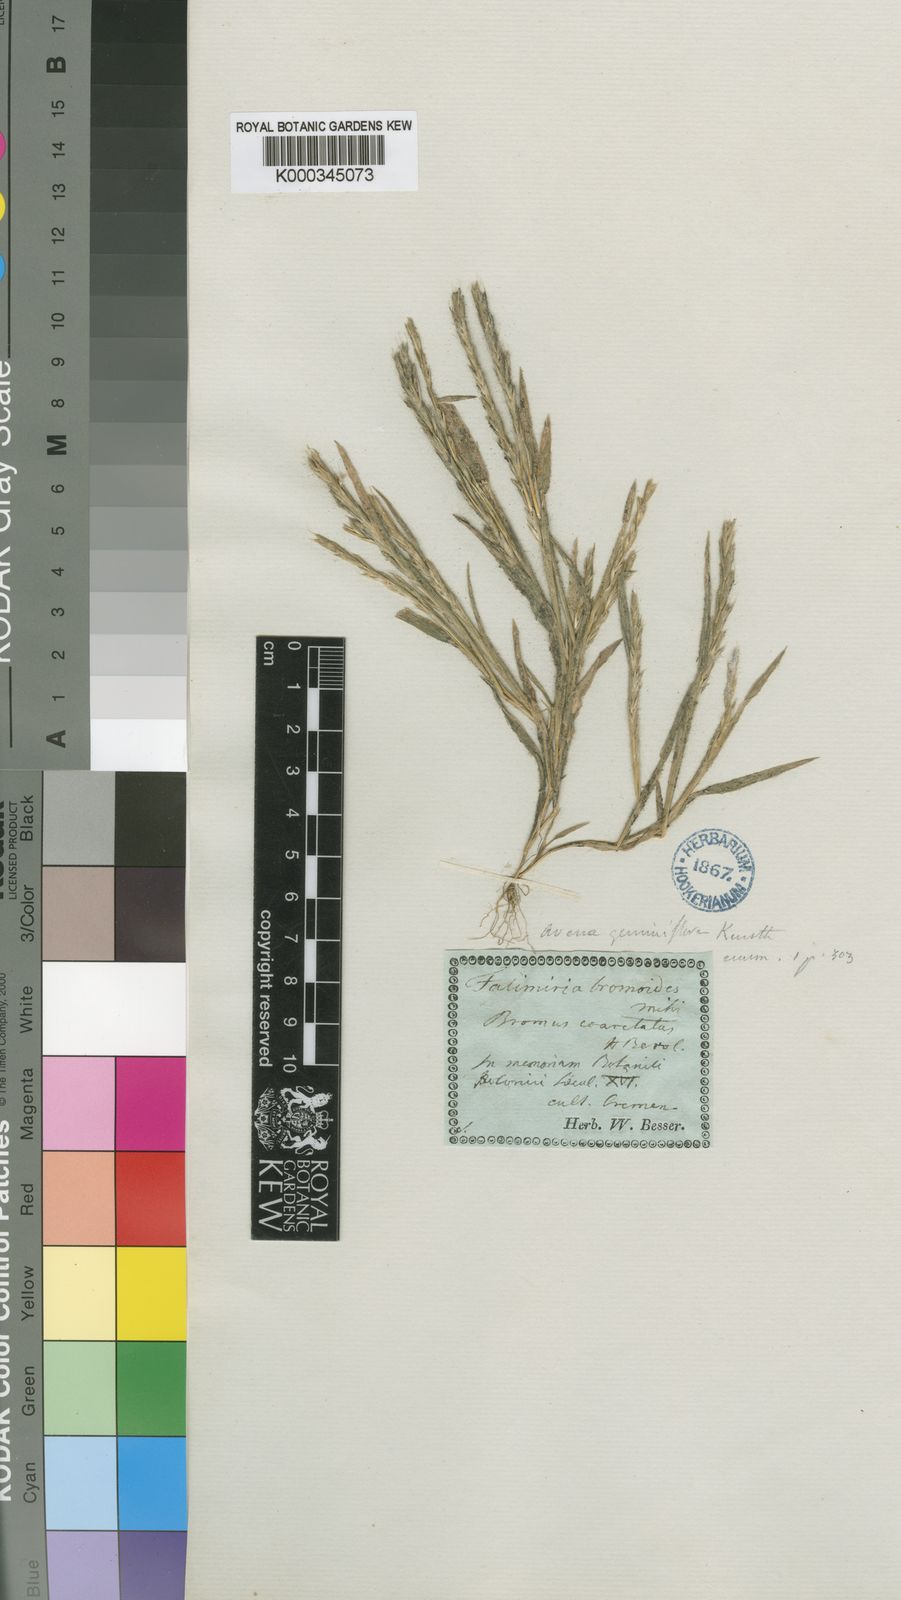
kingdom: Plantae
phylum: Tracheophyta
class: Liliopsida
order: Poales
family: Poaceae
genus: Gaudinia
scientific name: Gaudinia coarctata
